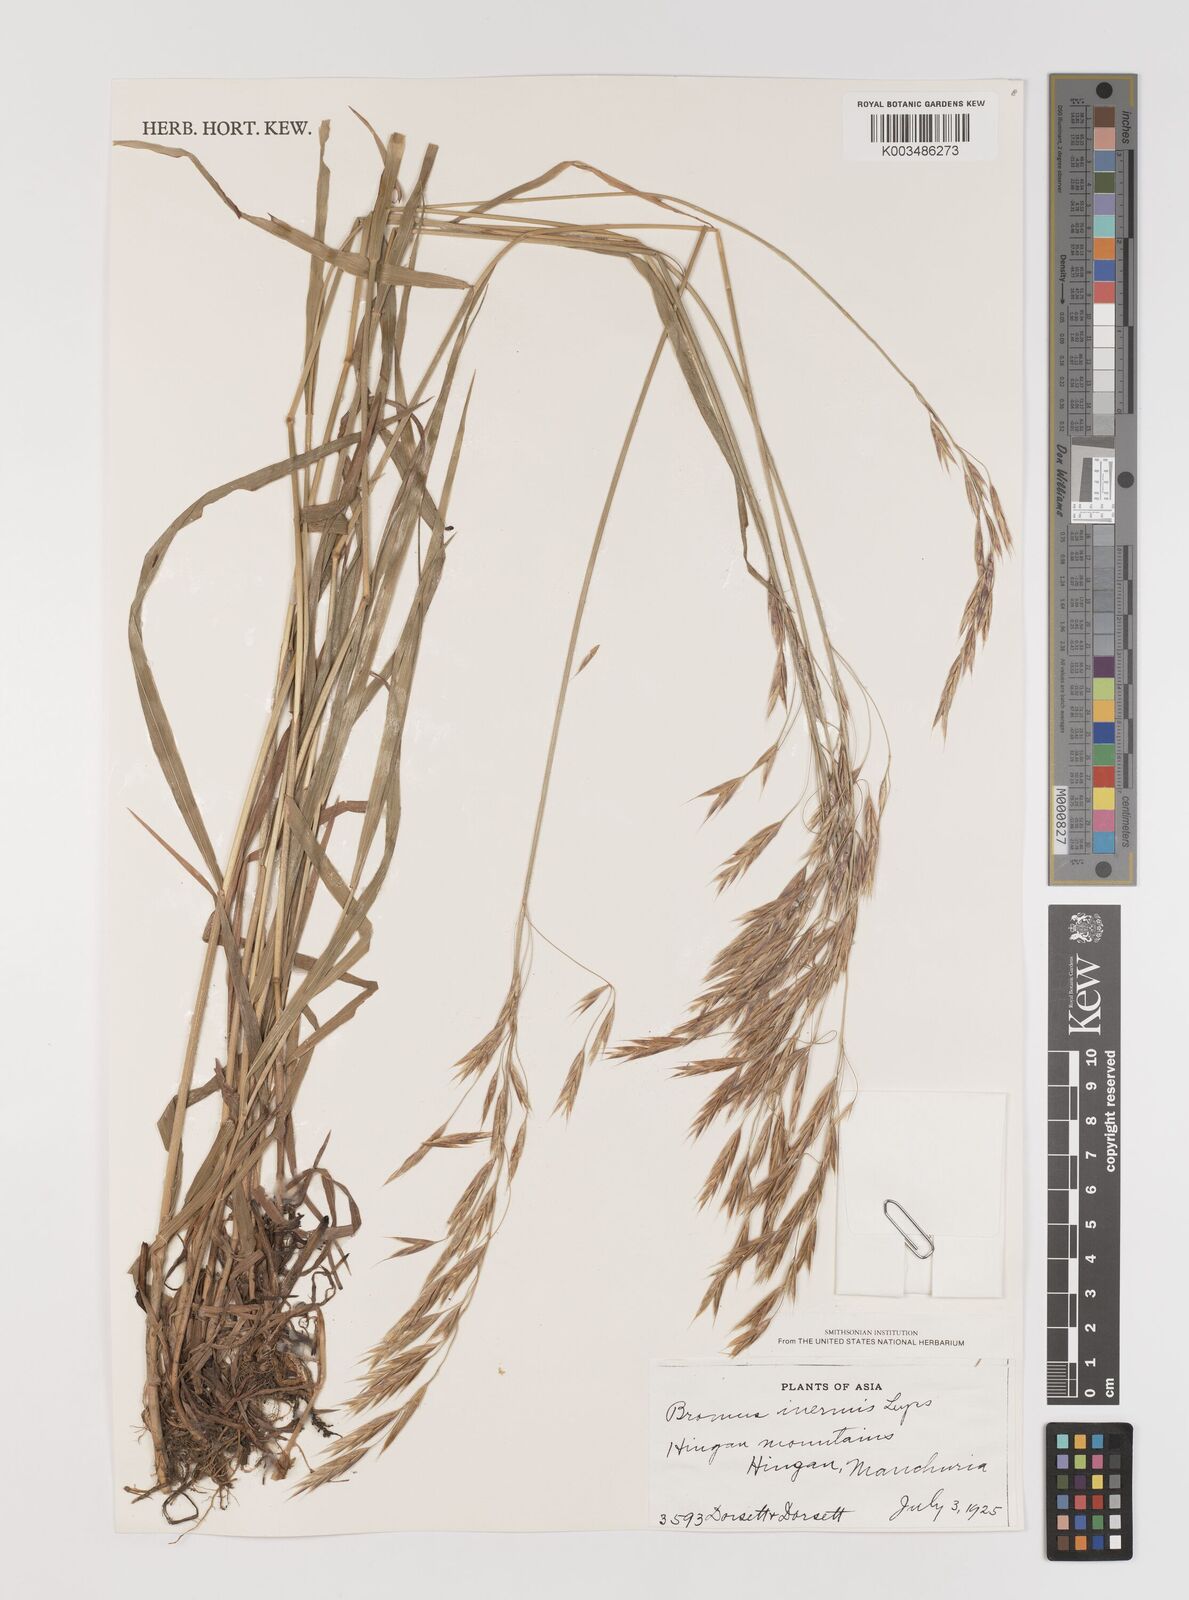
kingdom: Plantae
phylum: Tracheophyta
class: Liliopsida
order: Poales
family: Poaceae
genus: Bromus
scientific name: Bromus inermis
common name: Smooth brome
